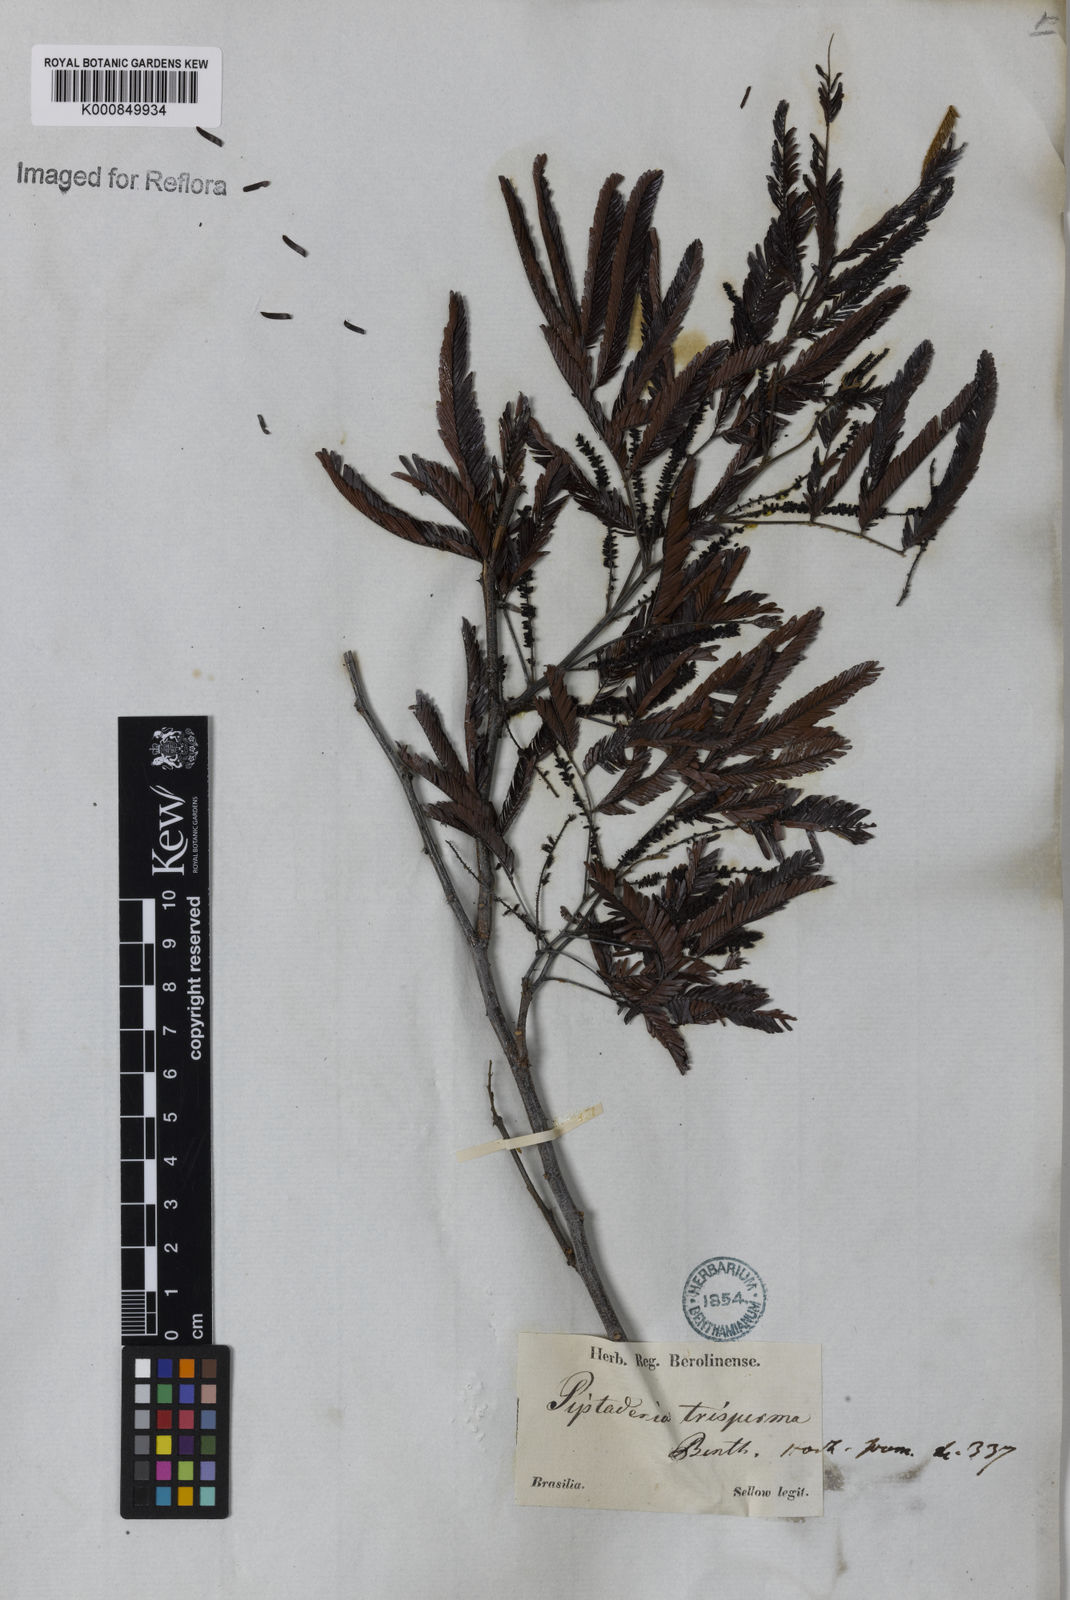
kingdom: Plantae
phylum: Tracheophyta
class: Magnoliopsida
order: Fabales
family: Fabaceae
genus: Piptadenia
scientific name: Piptadenia trisperma
